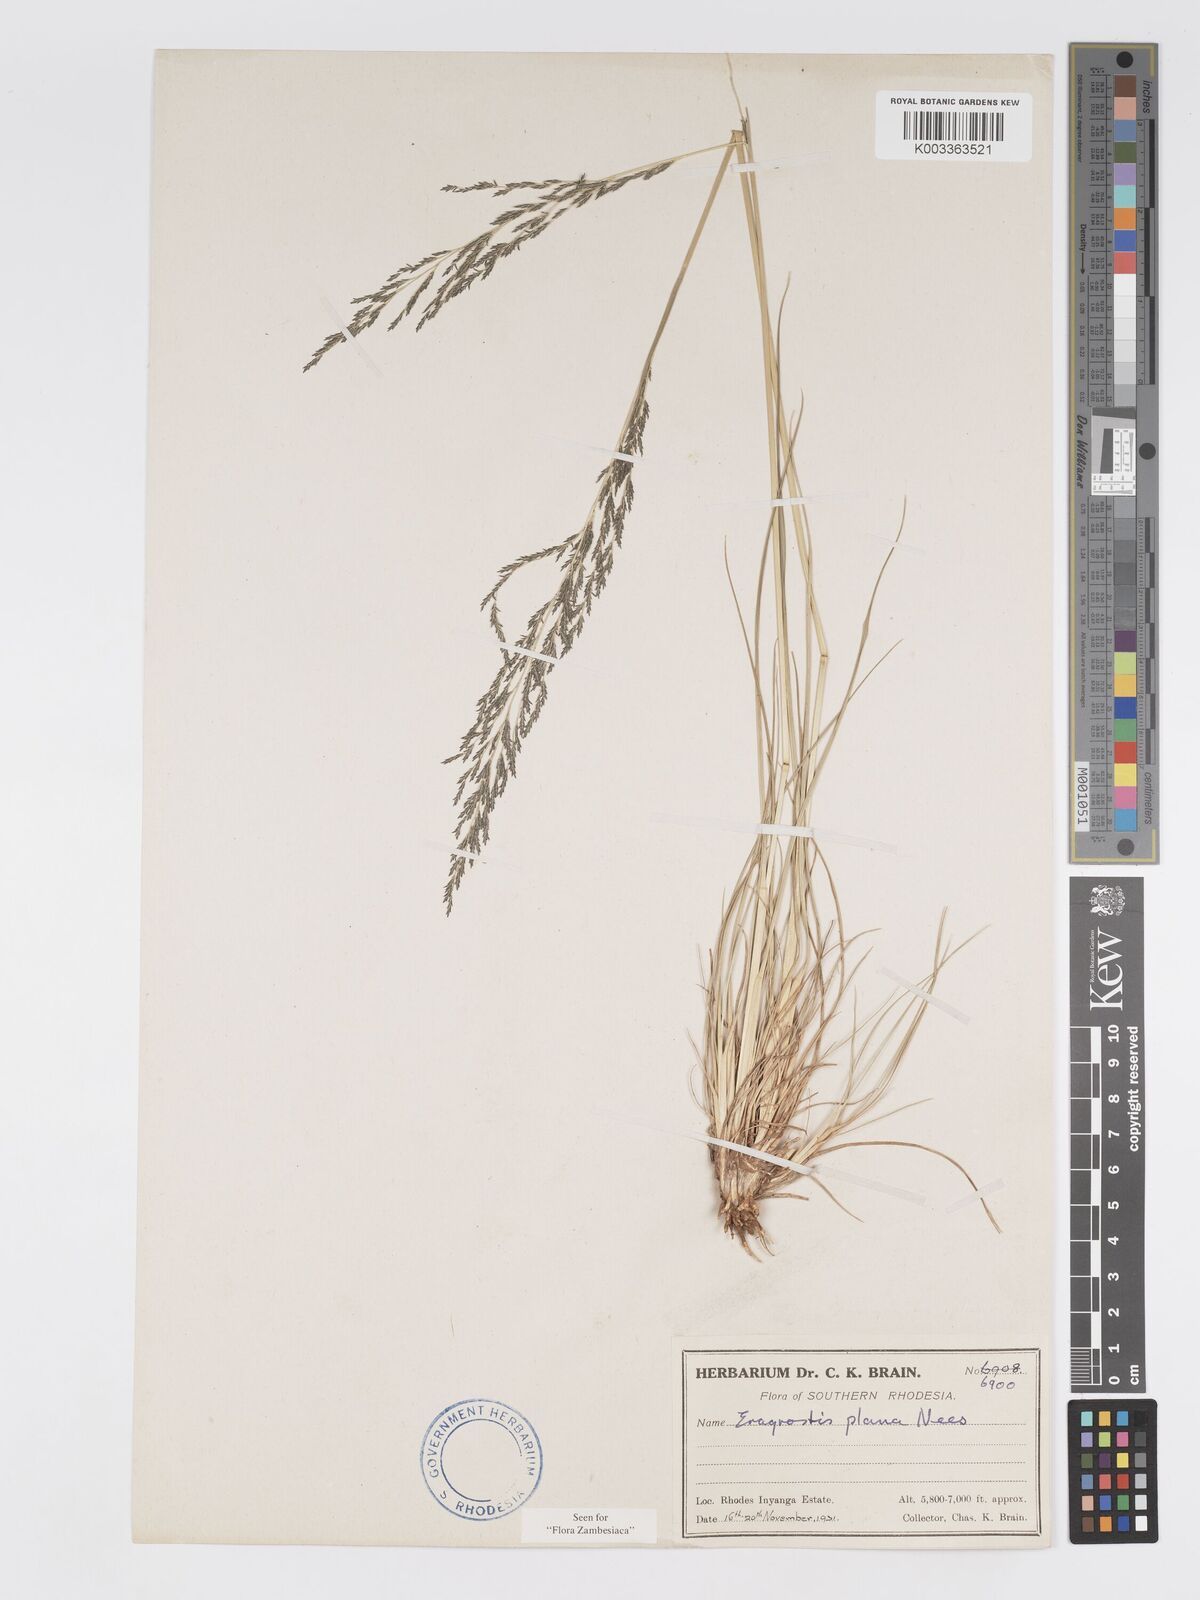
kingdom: Plantae
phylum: Tracheophyta
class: Liliopsida
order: Poales
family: Poaceae
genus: Eragrostis
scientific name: Eragrostis plana
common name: South african lovegrass
